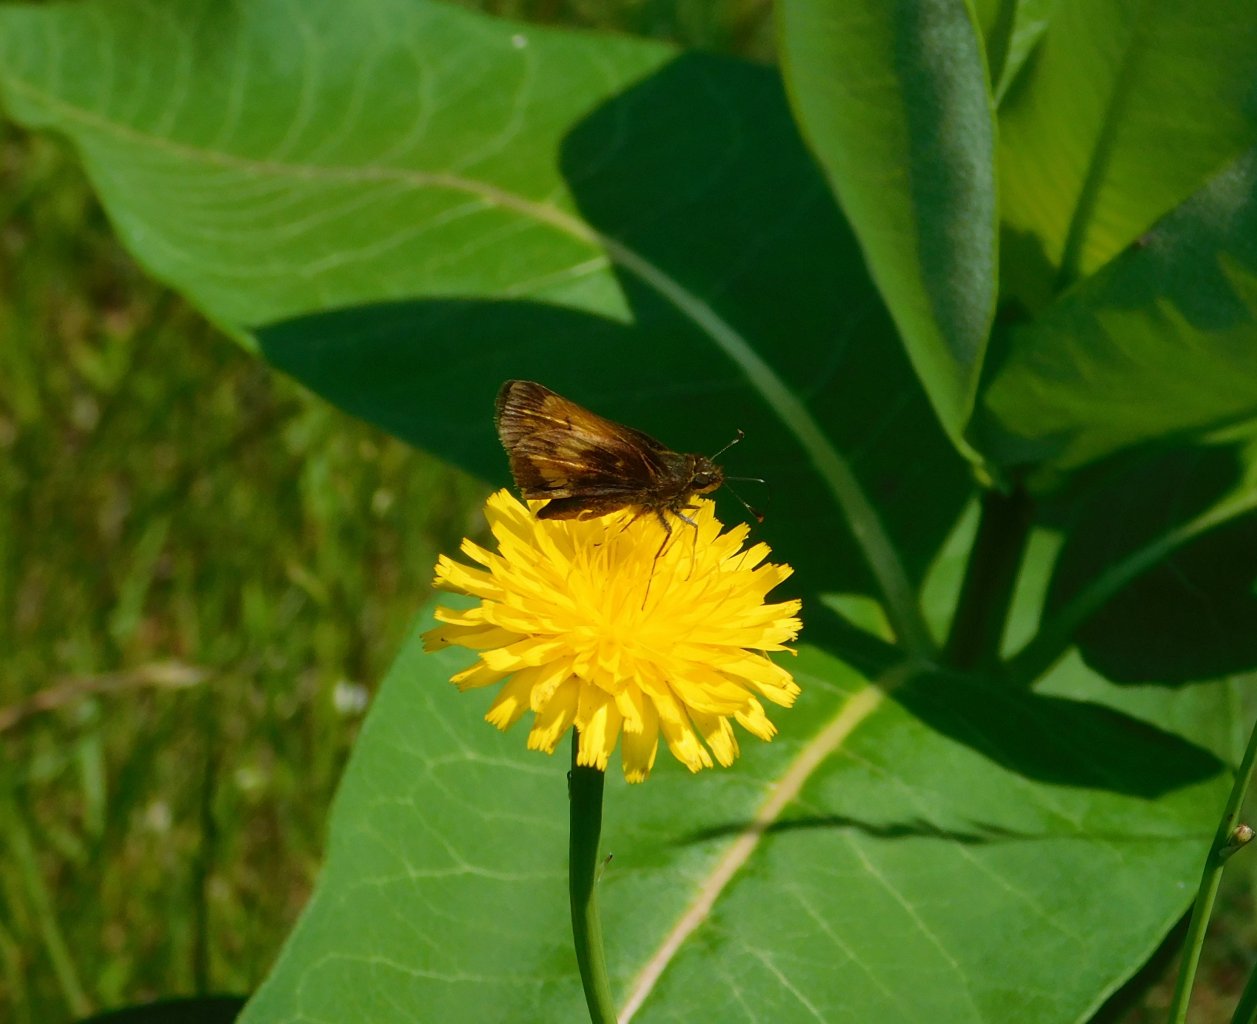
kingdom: Animalia
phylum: Arthropoda
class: Insecta
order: Lepidoptera
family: Hesperiidae
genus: Lon
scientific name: Lon hobomok
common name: Hobomok Skipper
